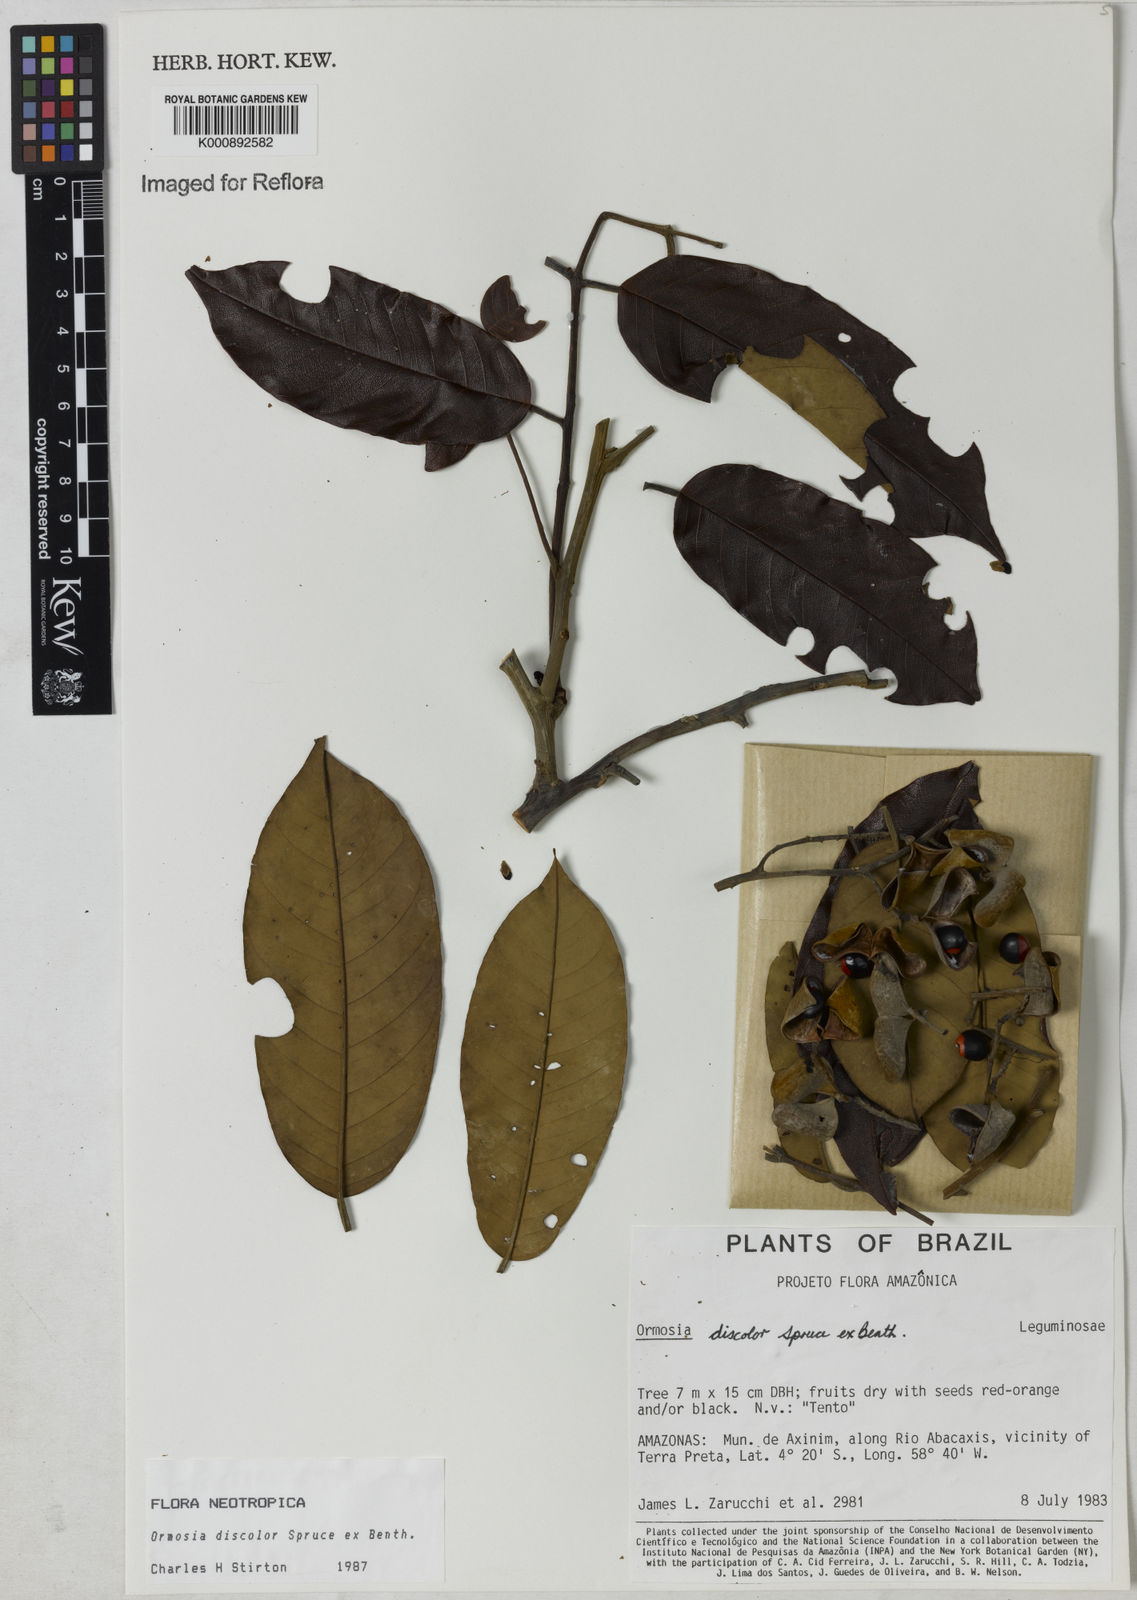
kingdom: Plantae
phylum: Tracheophyta
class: Magnoliopsida
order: Fabales
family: Fabaceae
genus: Ormosia
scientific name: Ormosia discolor
